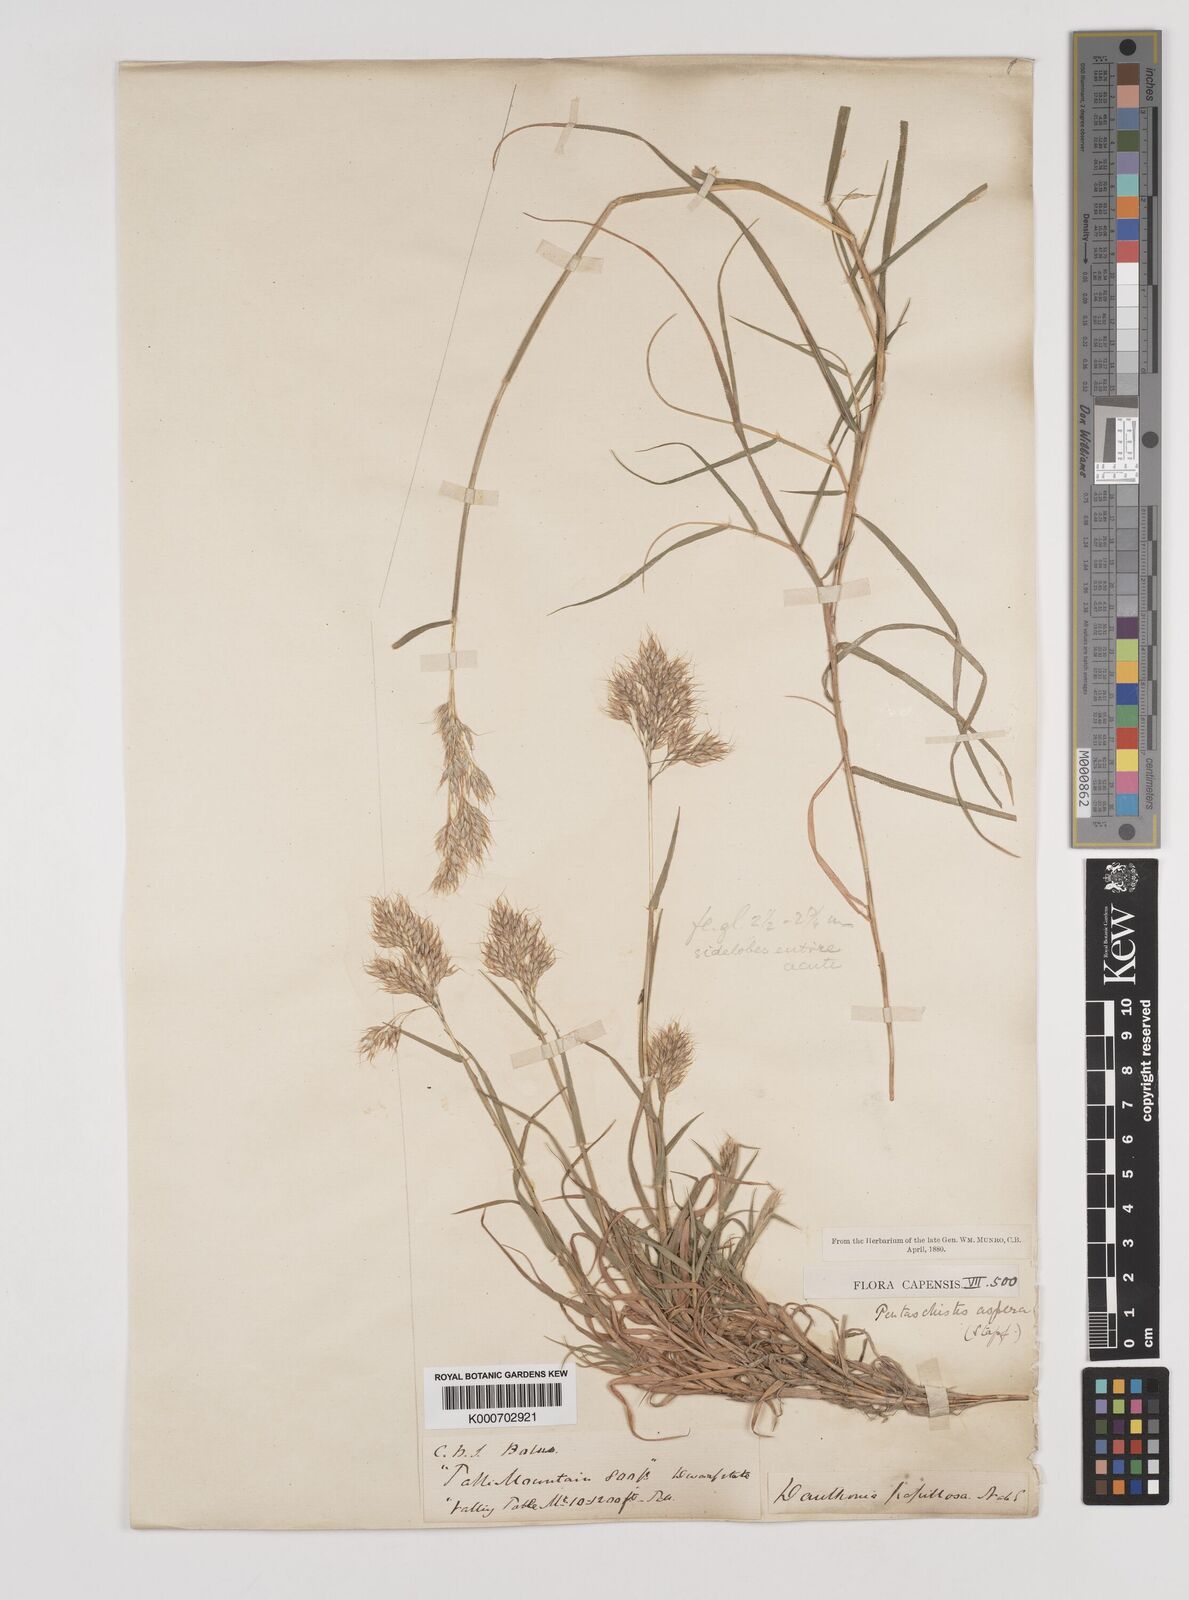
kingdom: Plantae
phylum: Tracheophyta
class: Liliopsida
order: Poales
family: Poaceae
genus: Pentameris
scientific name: Pentameris aspera
